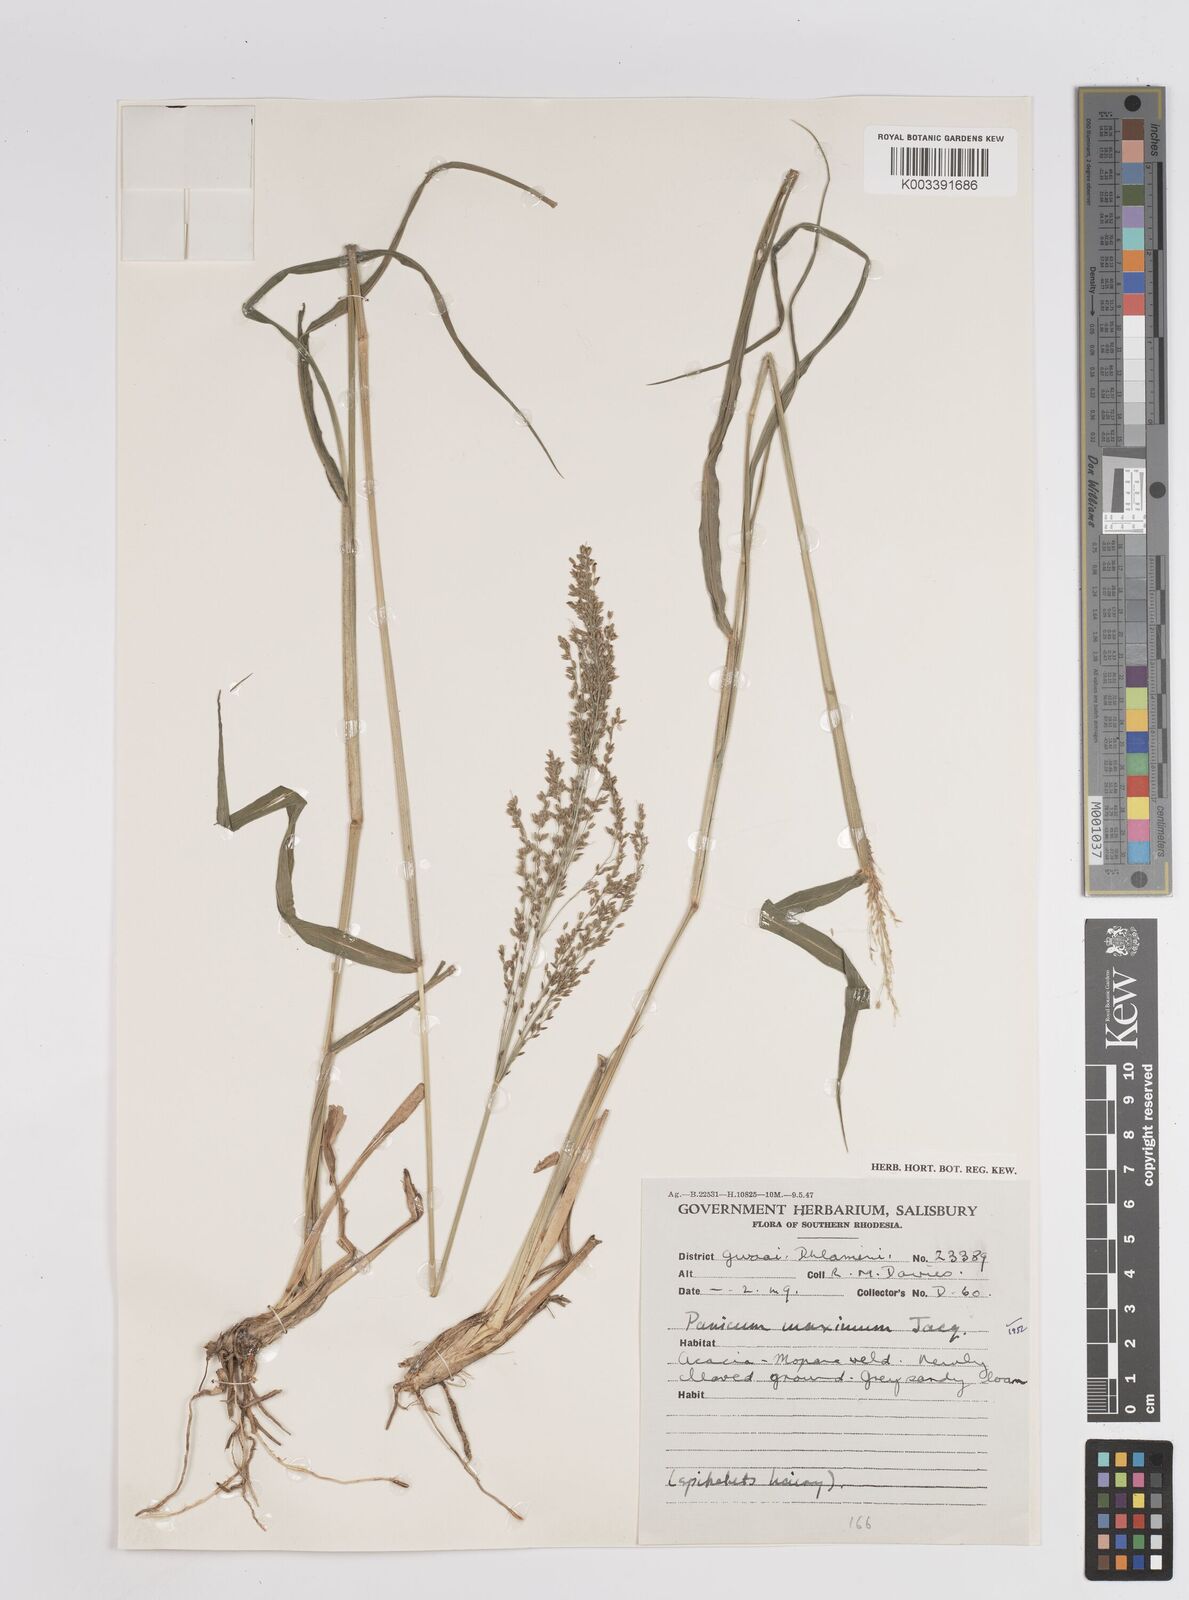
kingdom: Plantae
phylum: Tracheophyta
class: Liliopsida
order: Poales
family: Poaceae
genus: Megathyrsus
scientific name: Megathyrsus maximus
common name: Guineagrass
